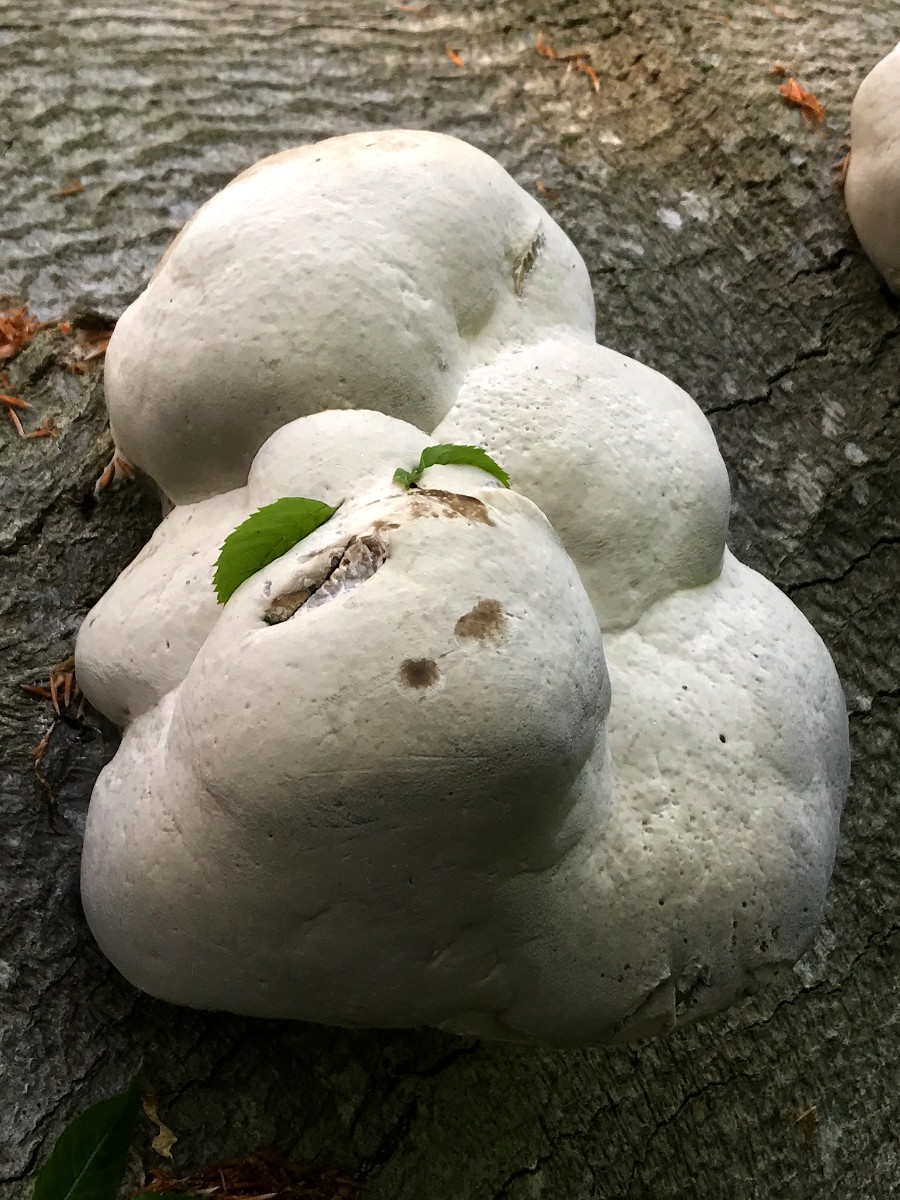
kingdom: Fungi
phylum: Basidiomycota
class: Agaricomycetes
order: Polyporales
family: Polyporaceae
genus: Fomes
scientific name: Fomes fomentarius
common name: tøndersvamp
